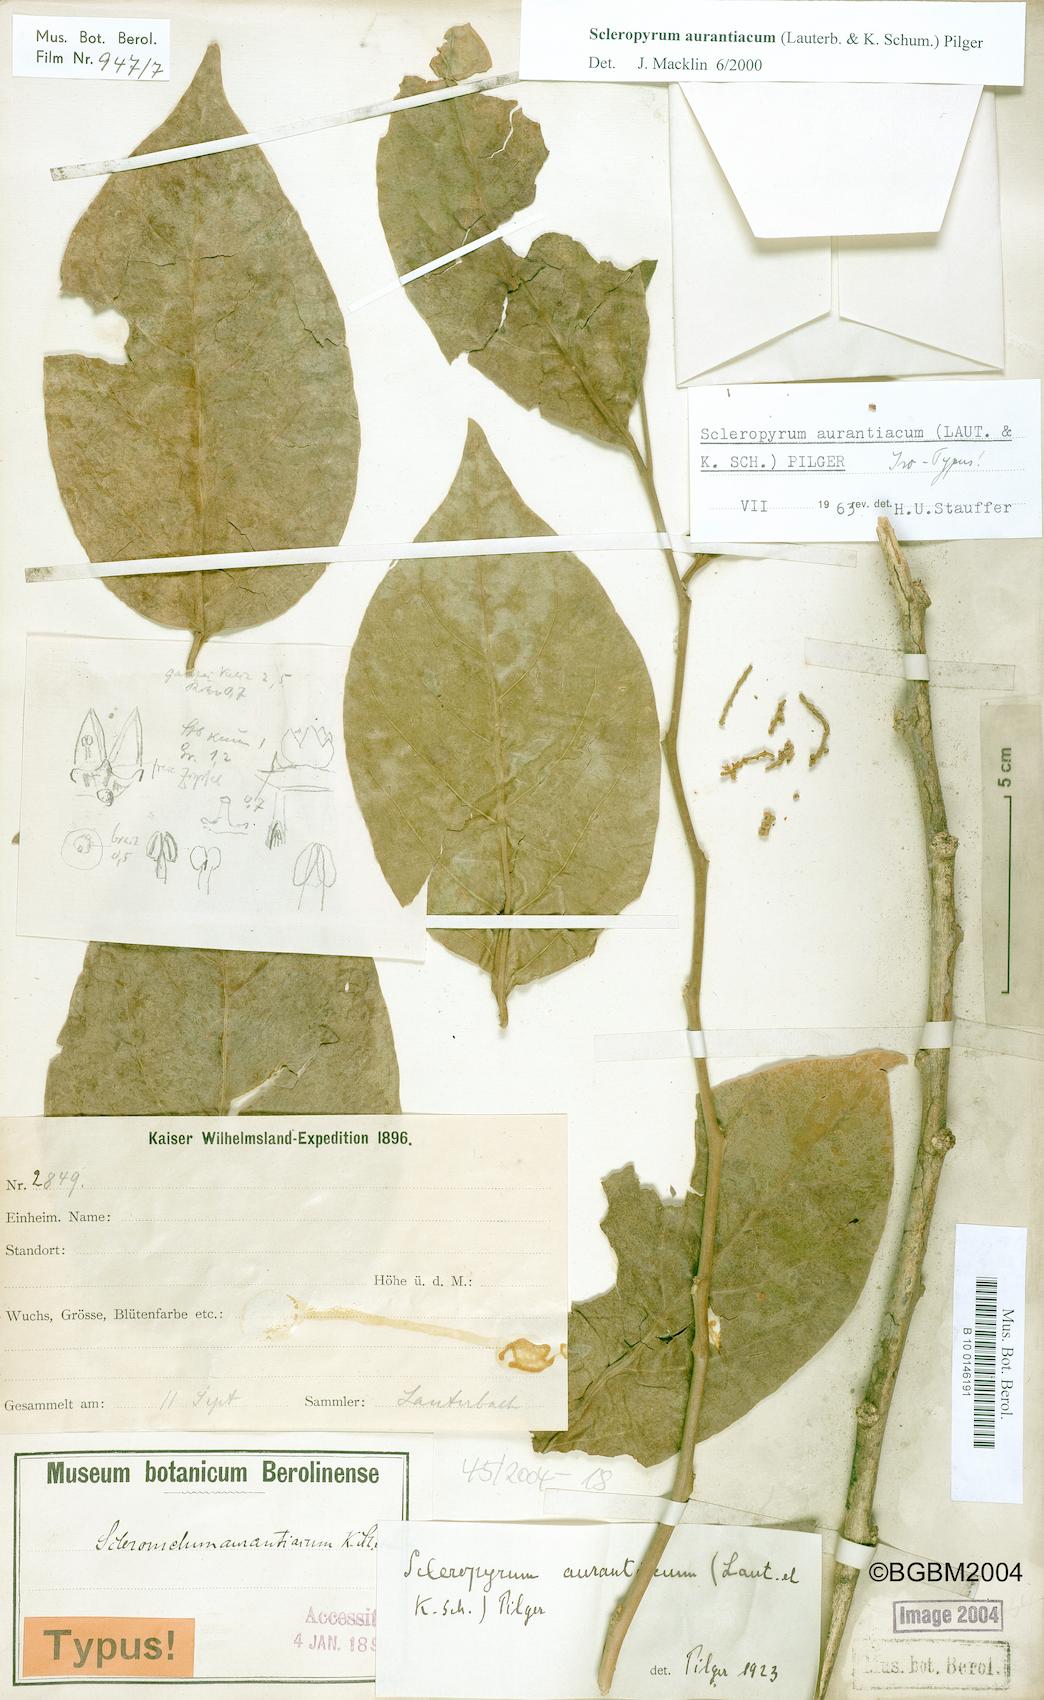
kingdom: Plantae
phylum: Tracheophyta
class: Magnoliopsida
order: Santalales
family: Cervantesiaceae
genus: Scleropyrum
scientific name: Scleropyrum aurantiacum
